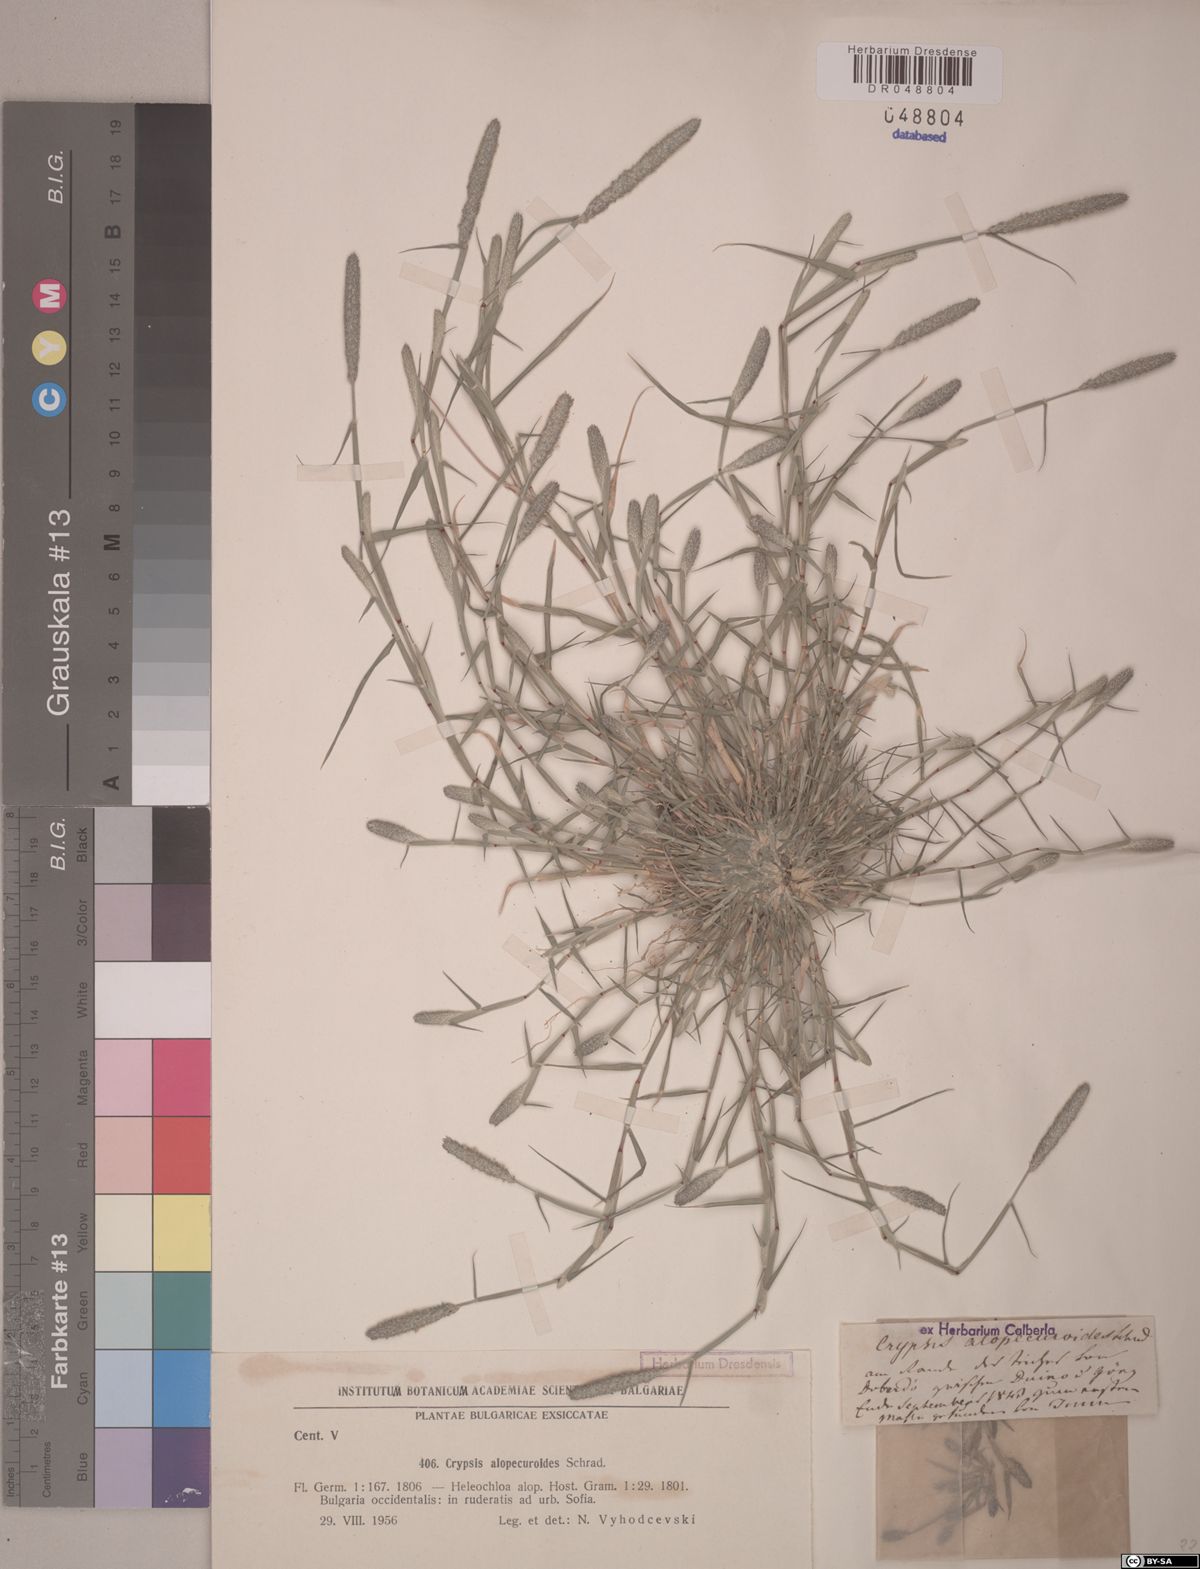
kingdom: Plantae
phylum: Tracheophyta
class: Liliopsida
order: Poales
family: Poaceae
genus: Sporobolus
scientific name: Sporobolus alopecuroides
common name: Foxtail pricklegrass
